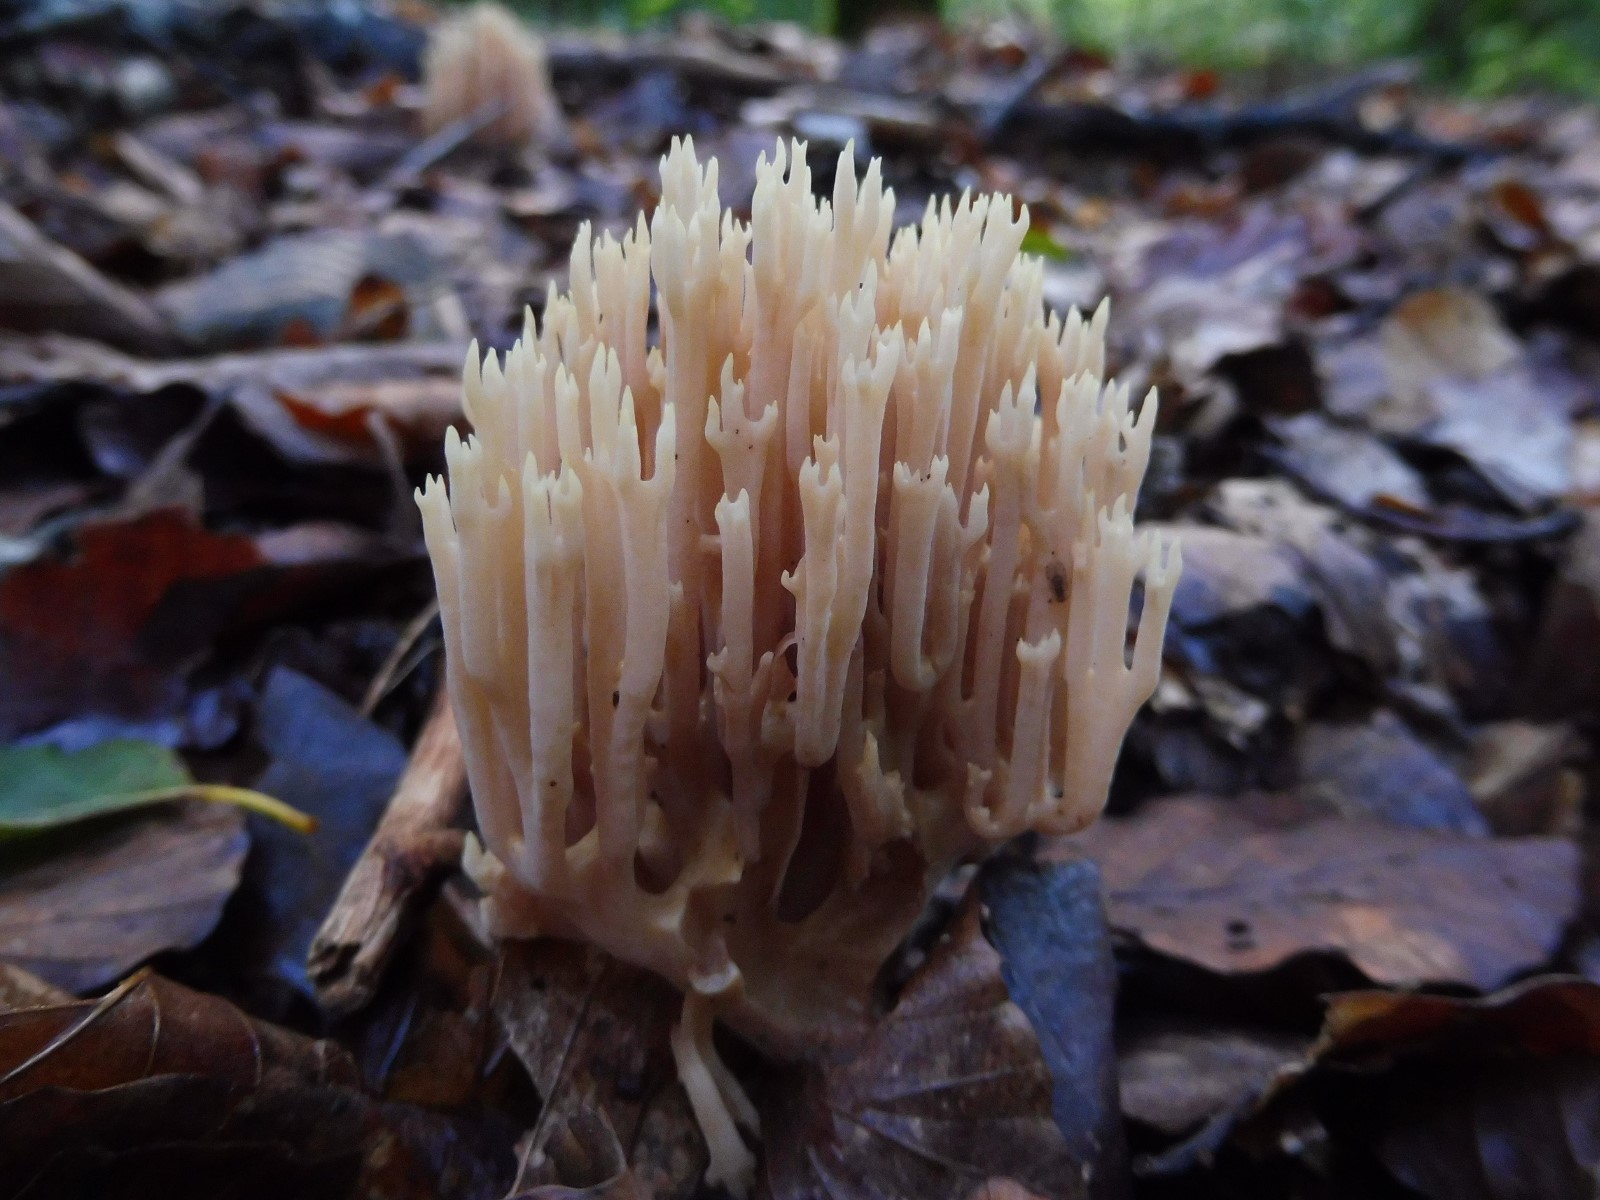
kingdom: Fungi
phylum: Basidiomycota
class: Agaricomycetes
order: Gomphales
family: Gomphaceae
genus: Ramaria
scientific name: Ramaria stricta
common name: rank koralsvamp
